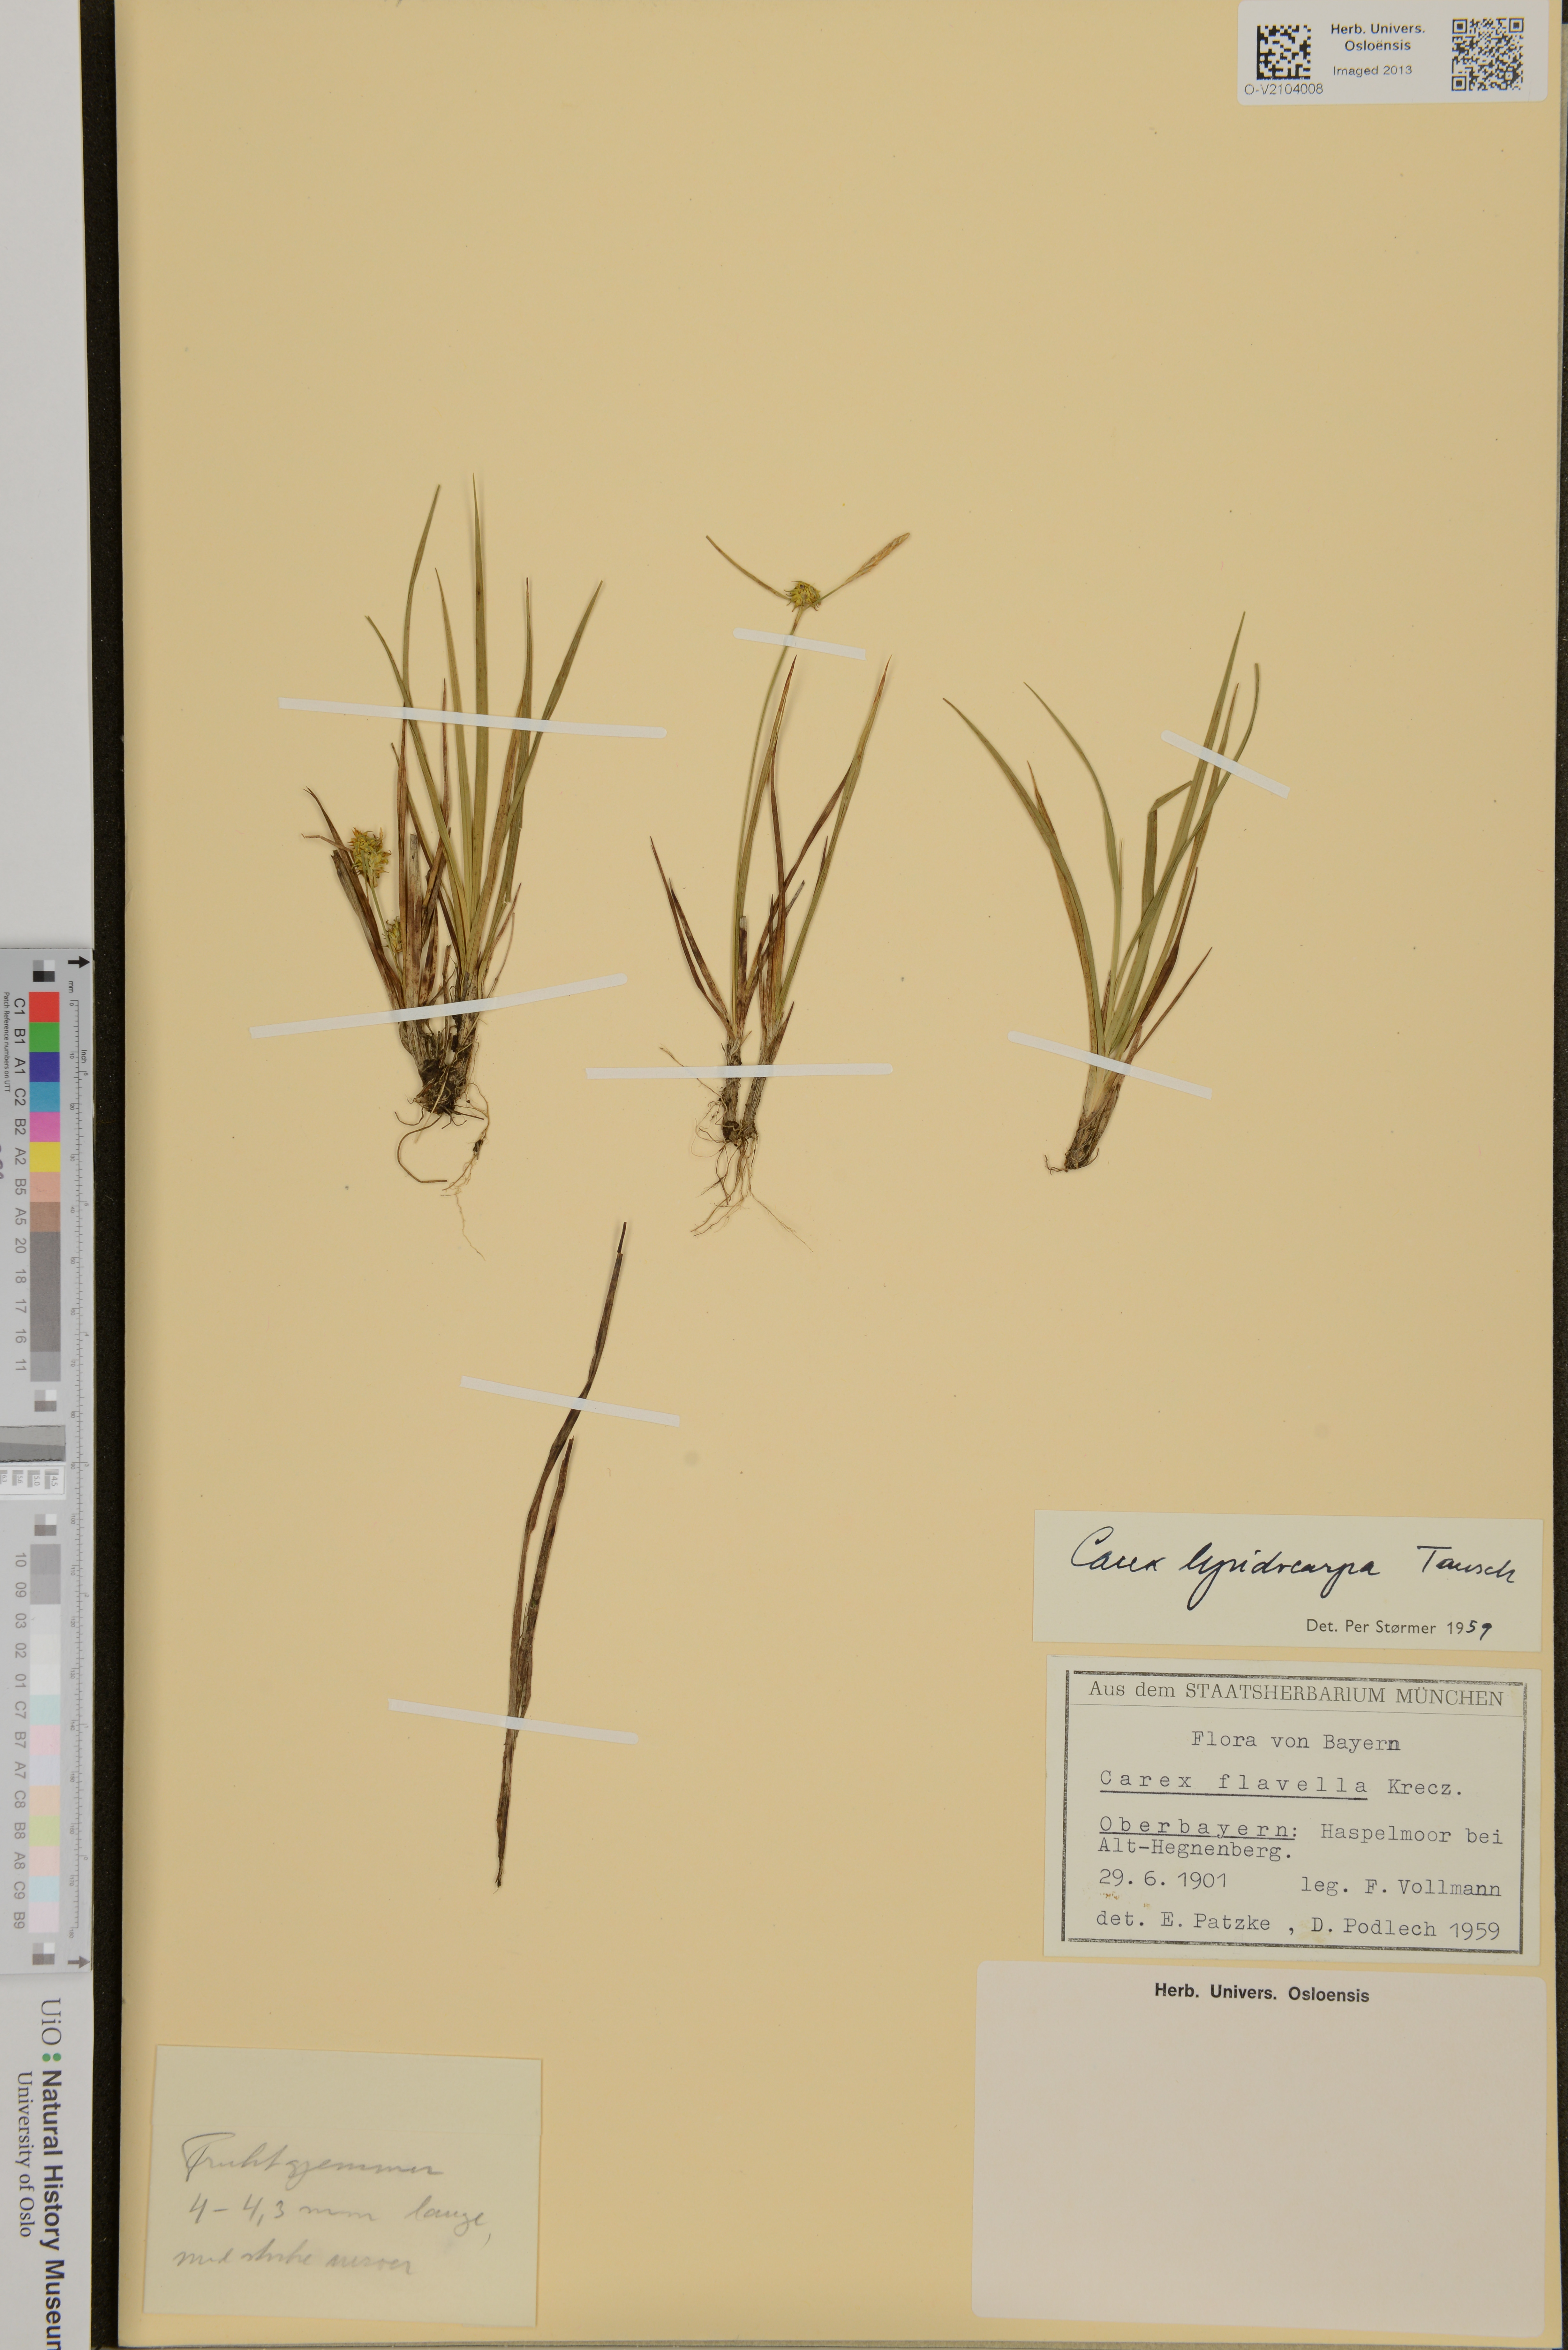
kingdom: Plantae
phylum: Tracheophyta
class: Liliopsida
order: Poales
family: Cyperaceae
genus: Carex
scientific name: Carex lepidocarpa
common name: Long-stalked yellow-sedge
